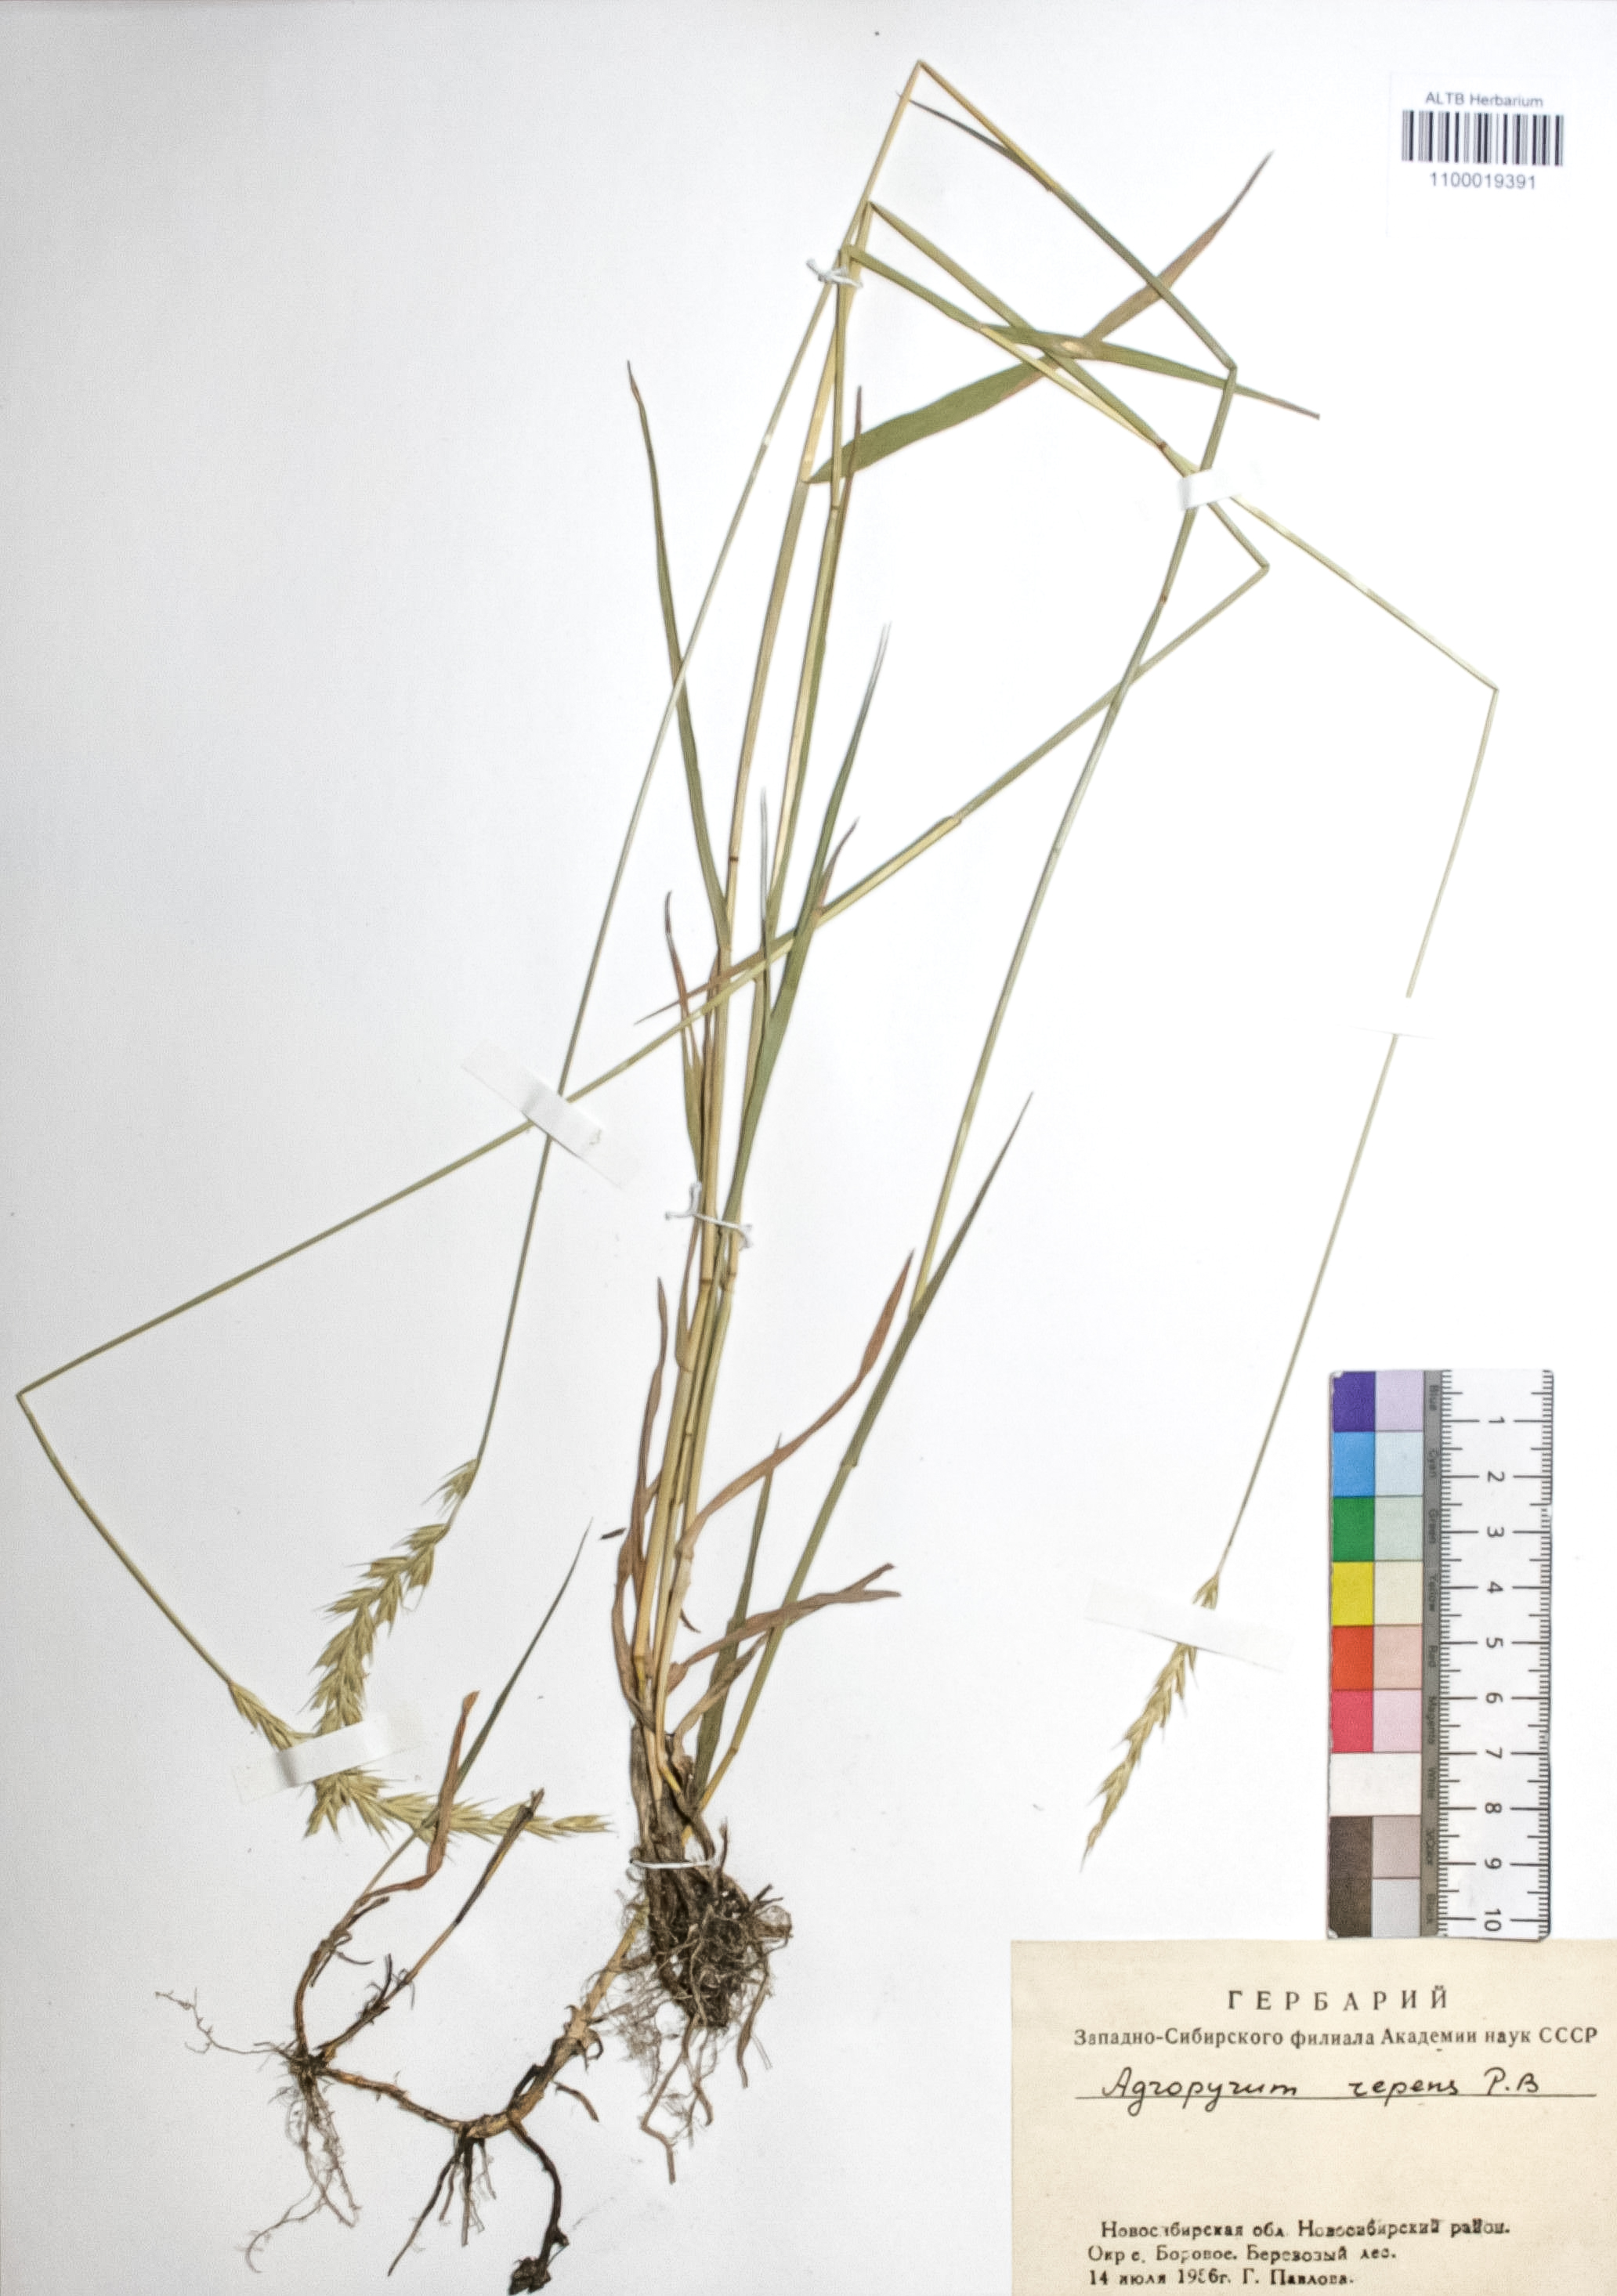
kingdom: Plantae
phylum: Tracheophyta
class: Liliopsida
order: Poales
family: Poaceae
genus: Elymus
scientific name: Elymus repens
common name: Quackgrass
